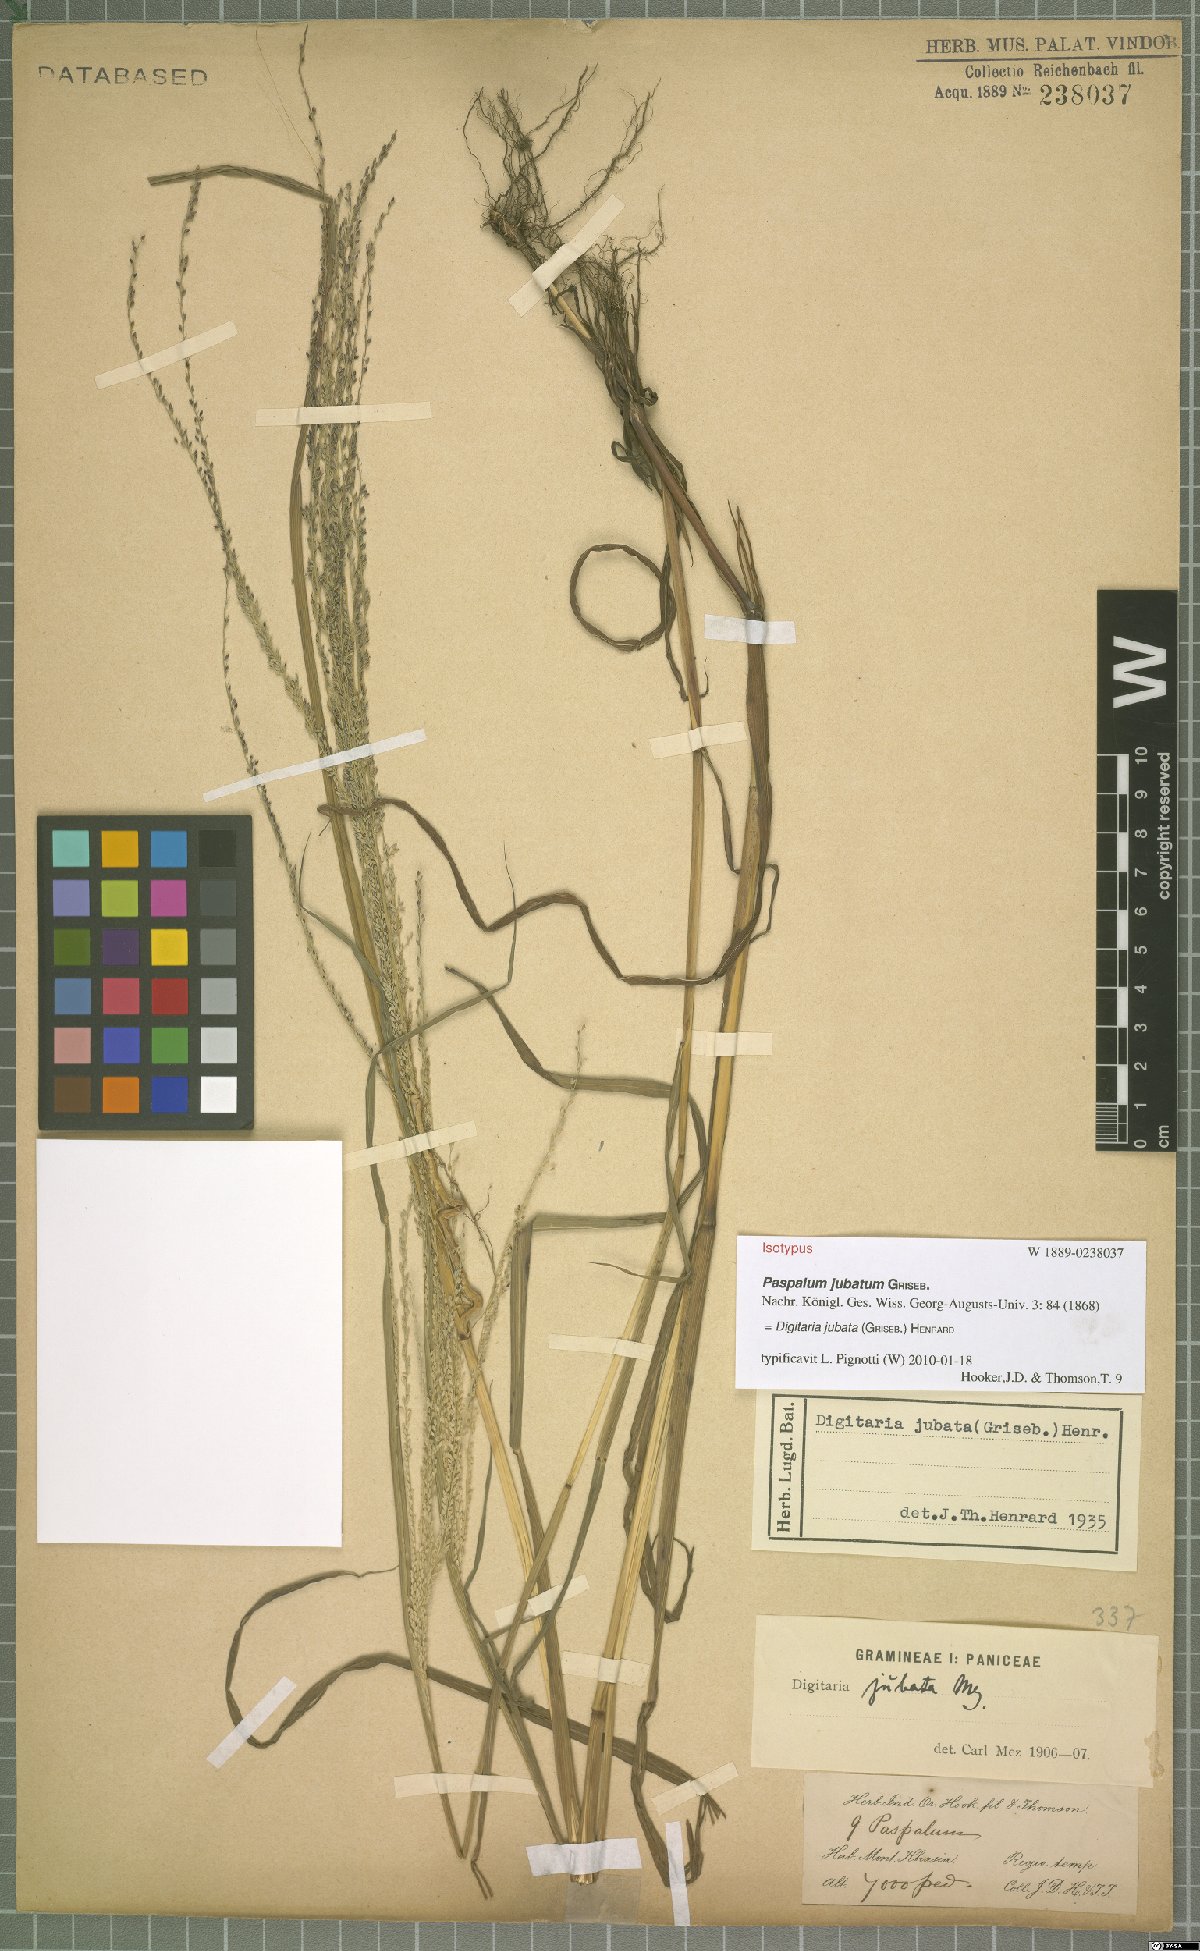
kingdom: Plantae
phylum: Tracheophyta
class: Liliopsida
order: Poales
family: Poaceae
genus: Digitaria
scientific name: Digitaria jubata
